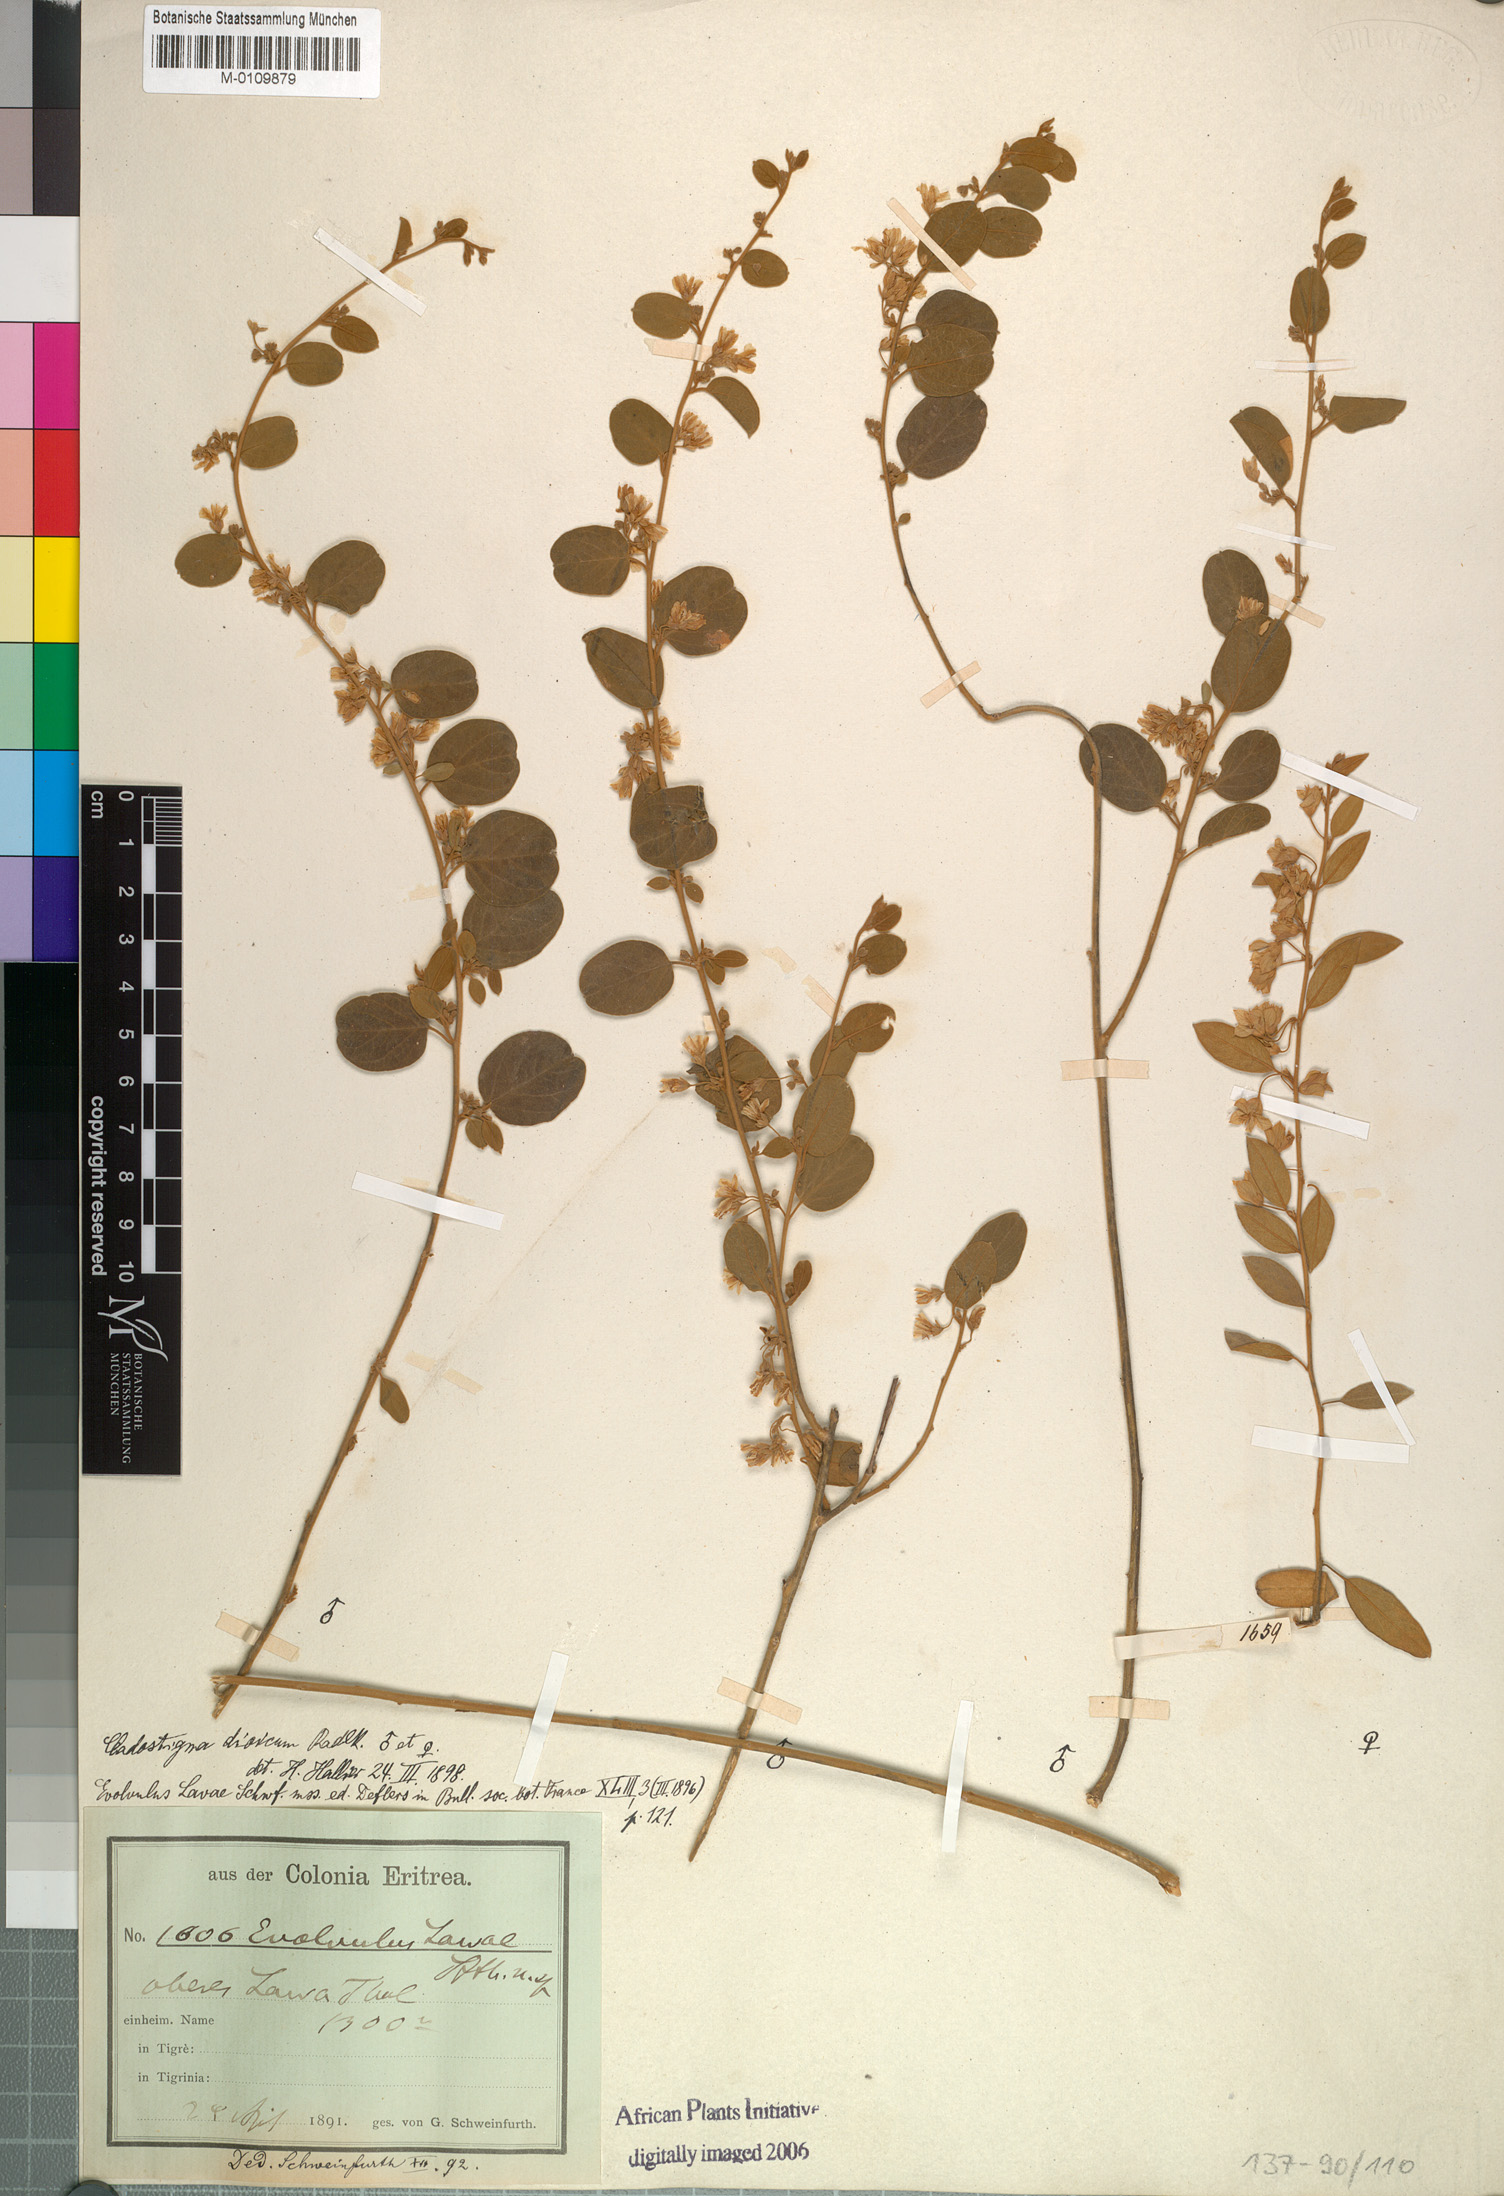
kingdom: Plantae
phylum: Tracheophyta
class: Magnoliopsida
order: Solanales
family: Convolvulaceae
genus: Cladostigma
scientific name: Cladostigma dioicum
